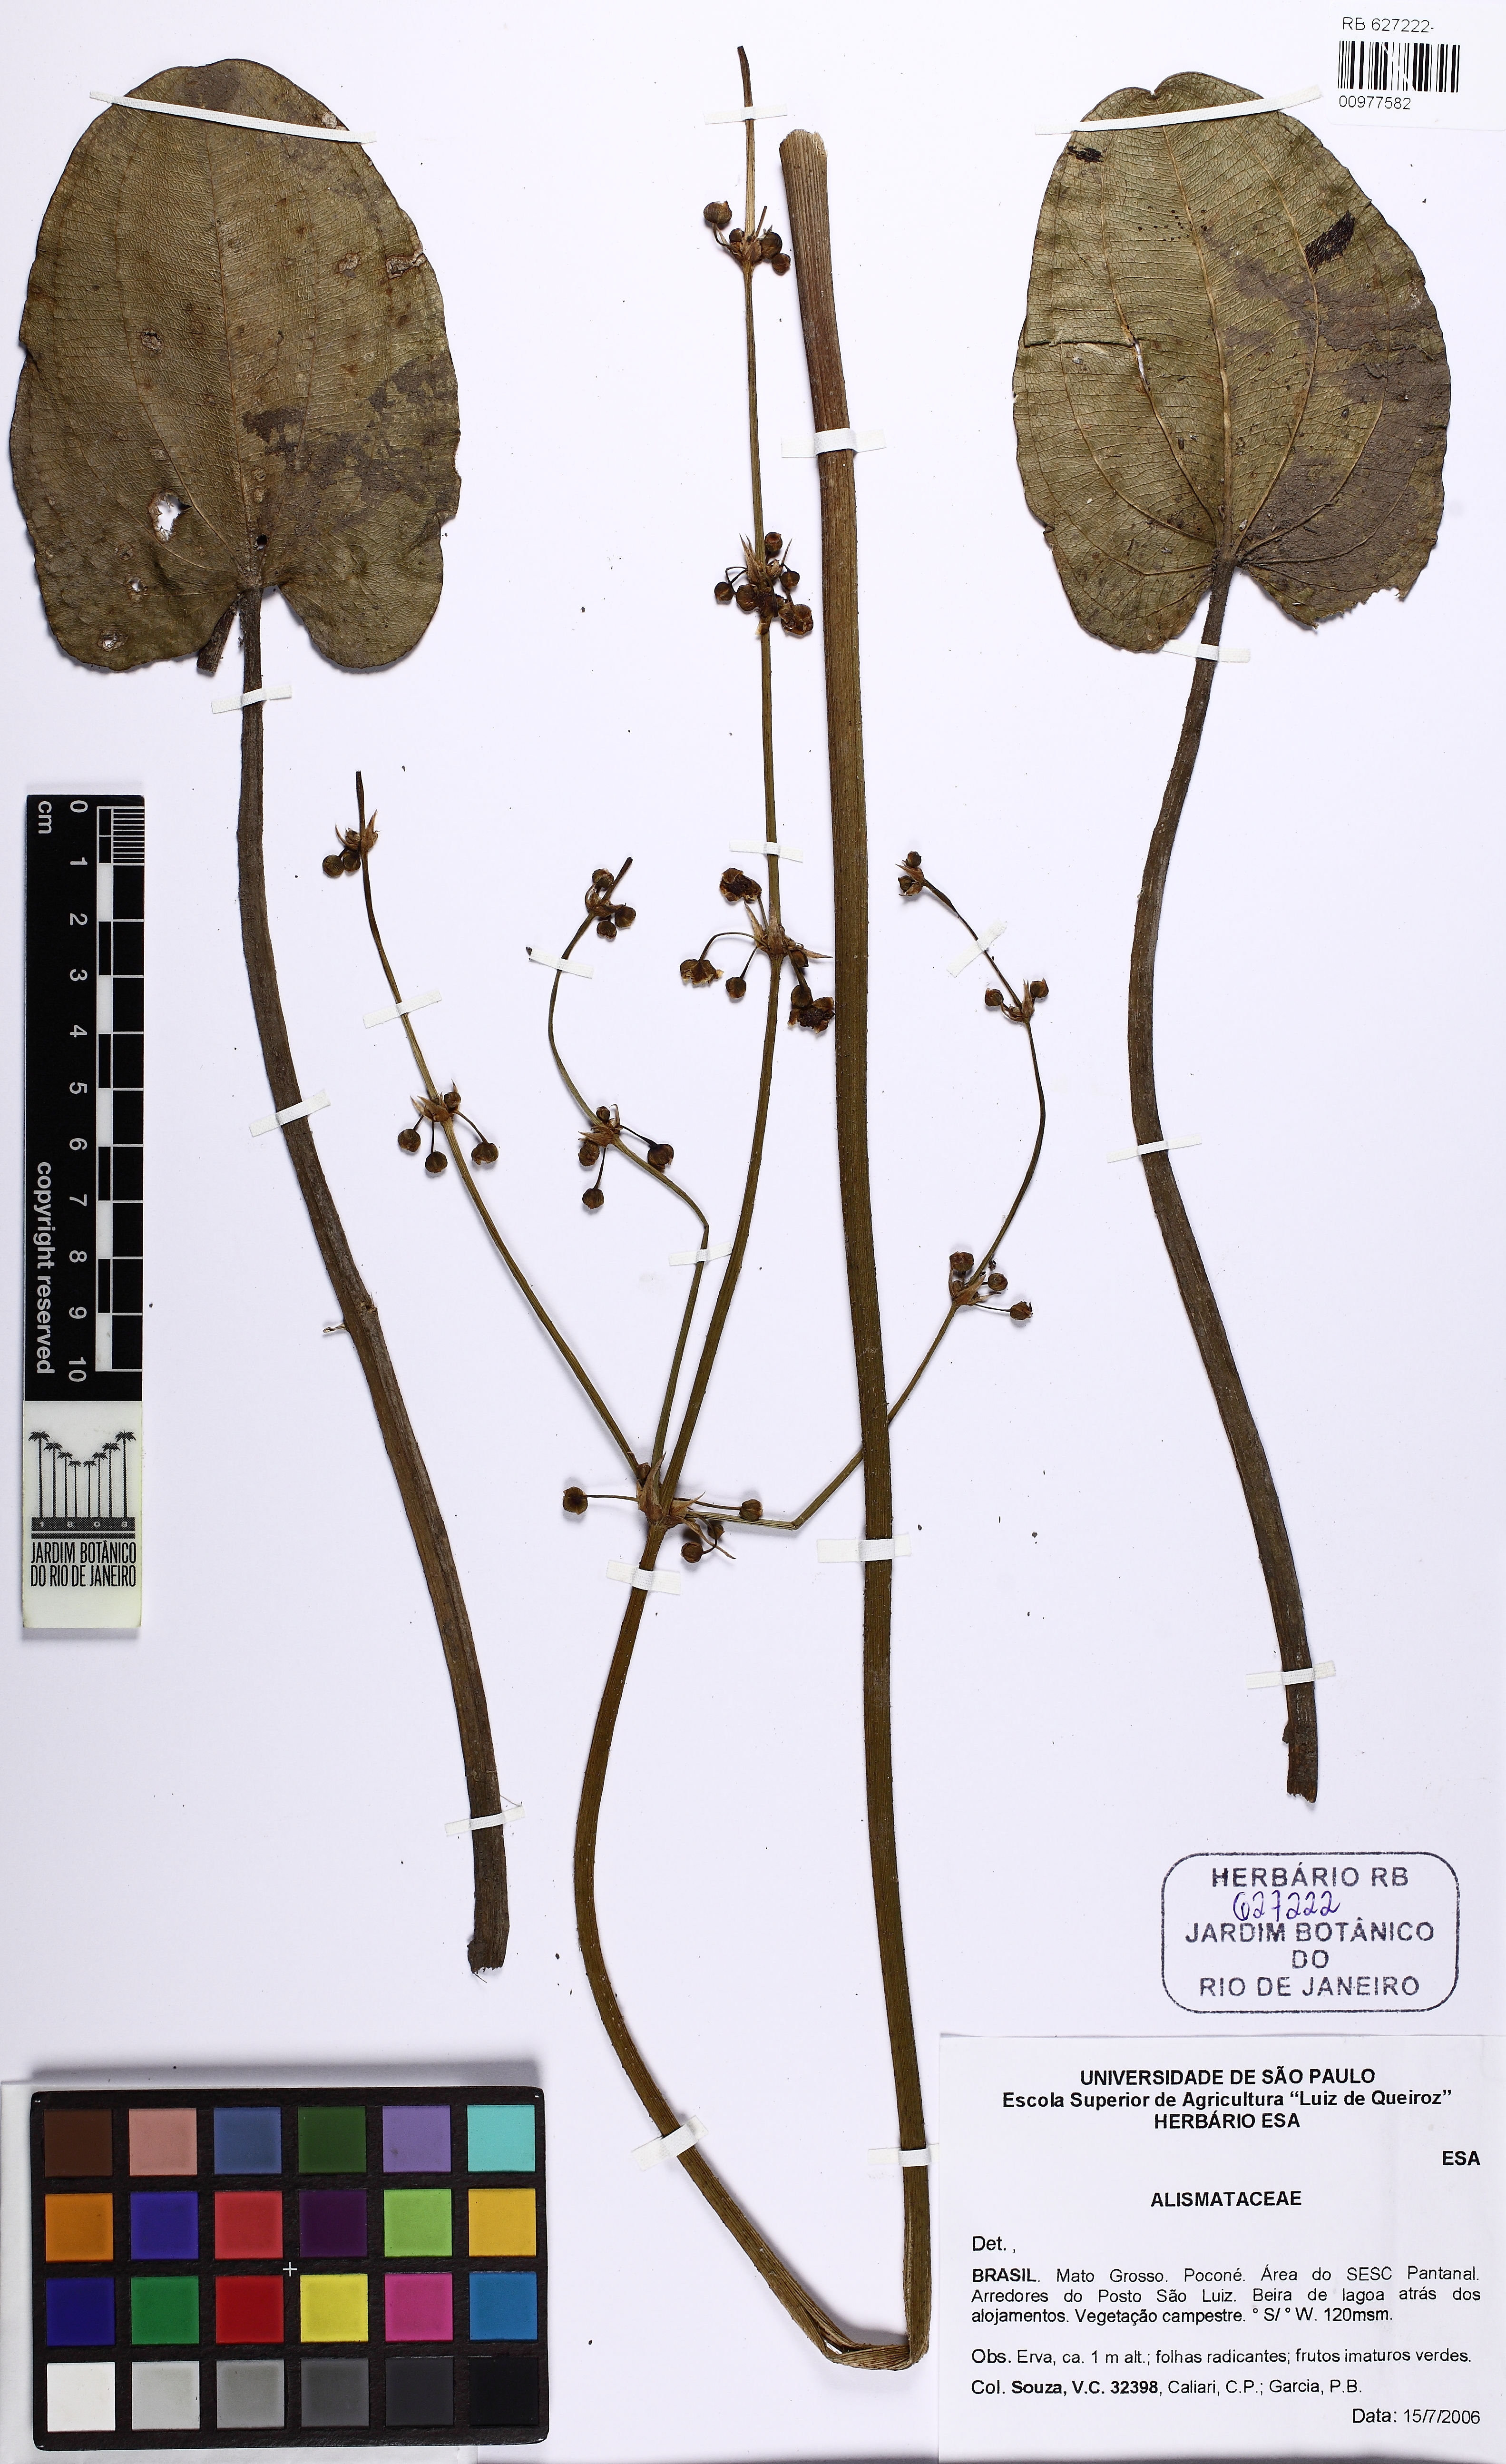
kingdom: Plantae
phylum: Tracheophyta
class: Liliopsida
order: Alismatales
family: Alismataceae
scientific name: Alismataceae
